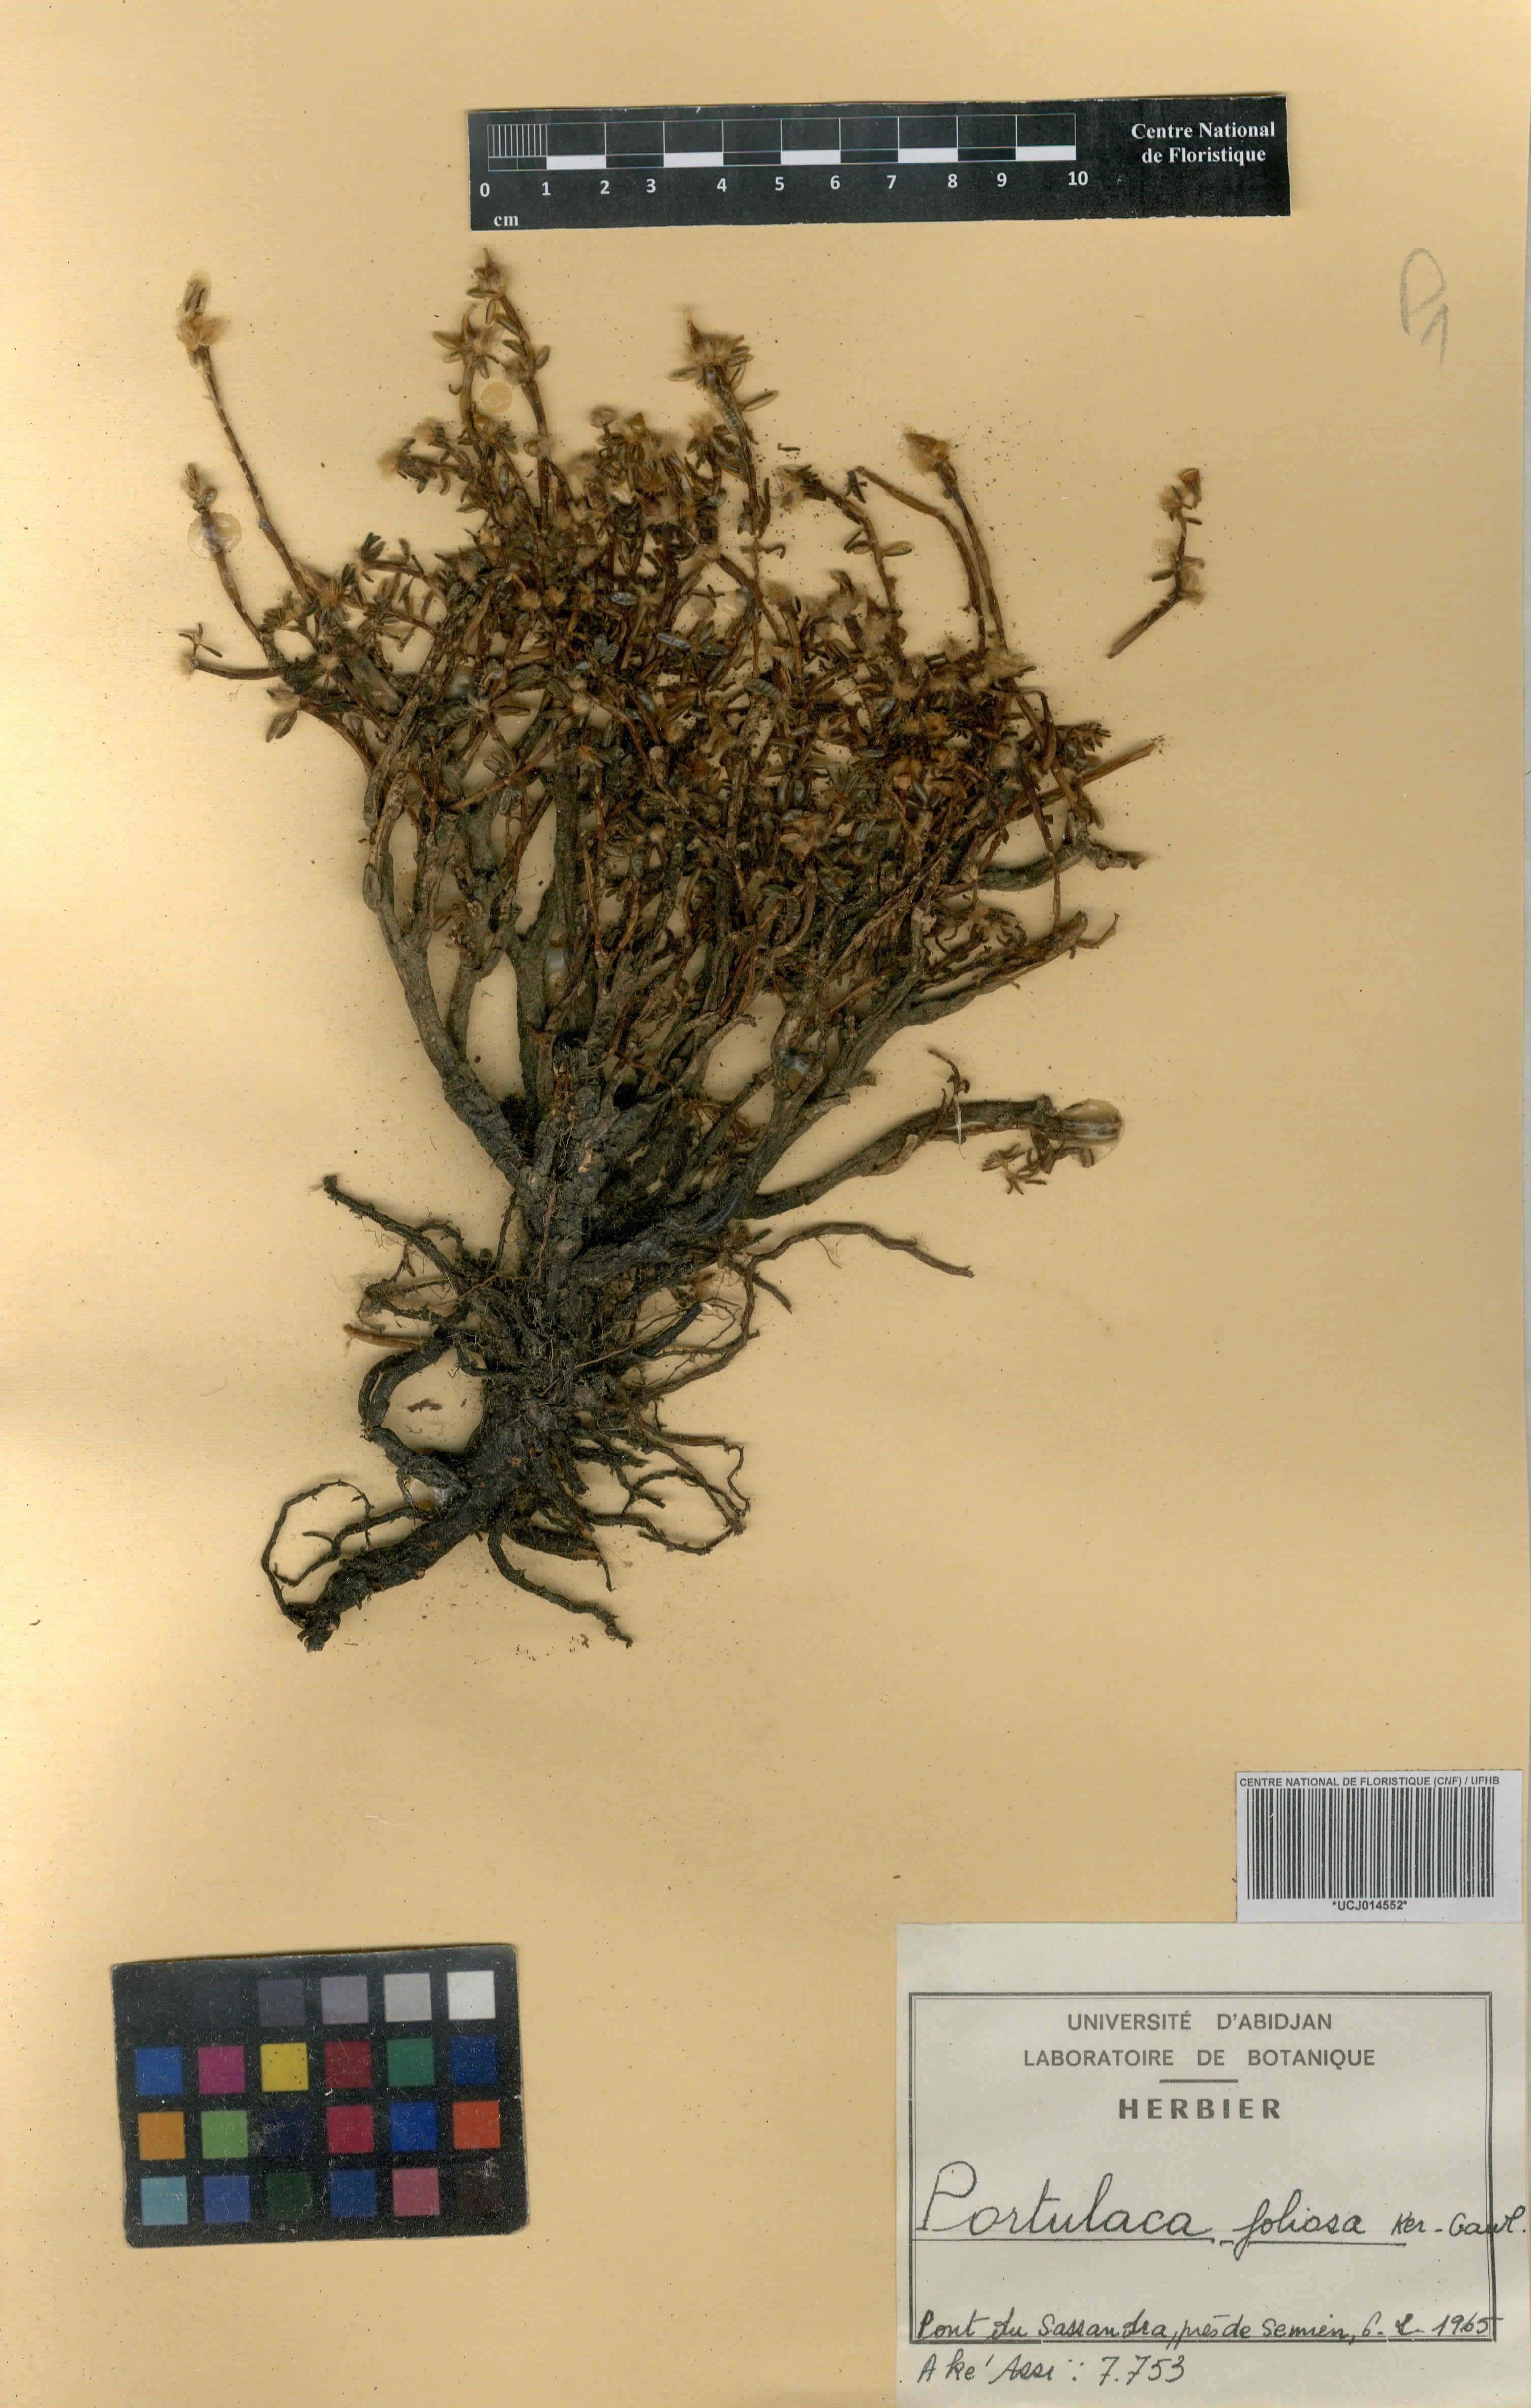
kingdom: Plantae
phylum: Tracheophyta
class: Magnoliopsida
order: Caryophyllales
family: Portulacaceae
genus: Portulaca
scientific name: Portulaca foliosa
